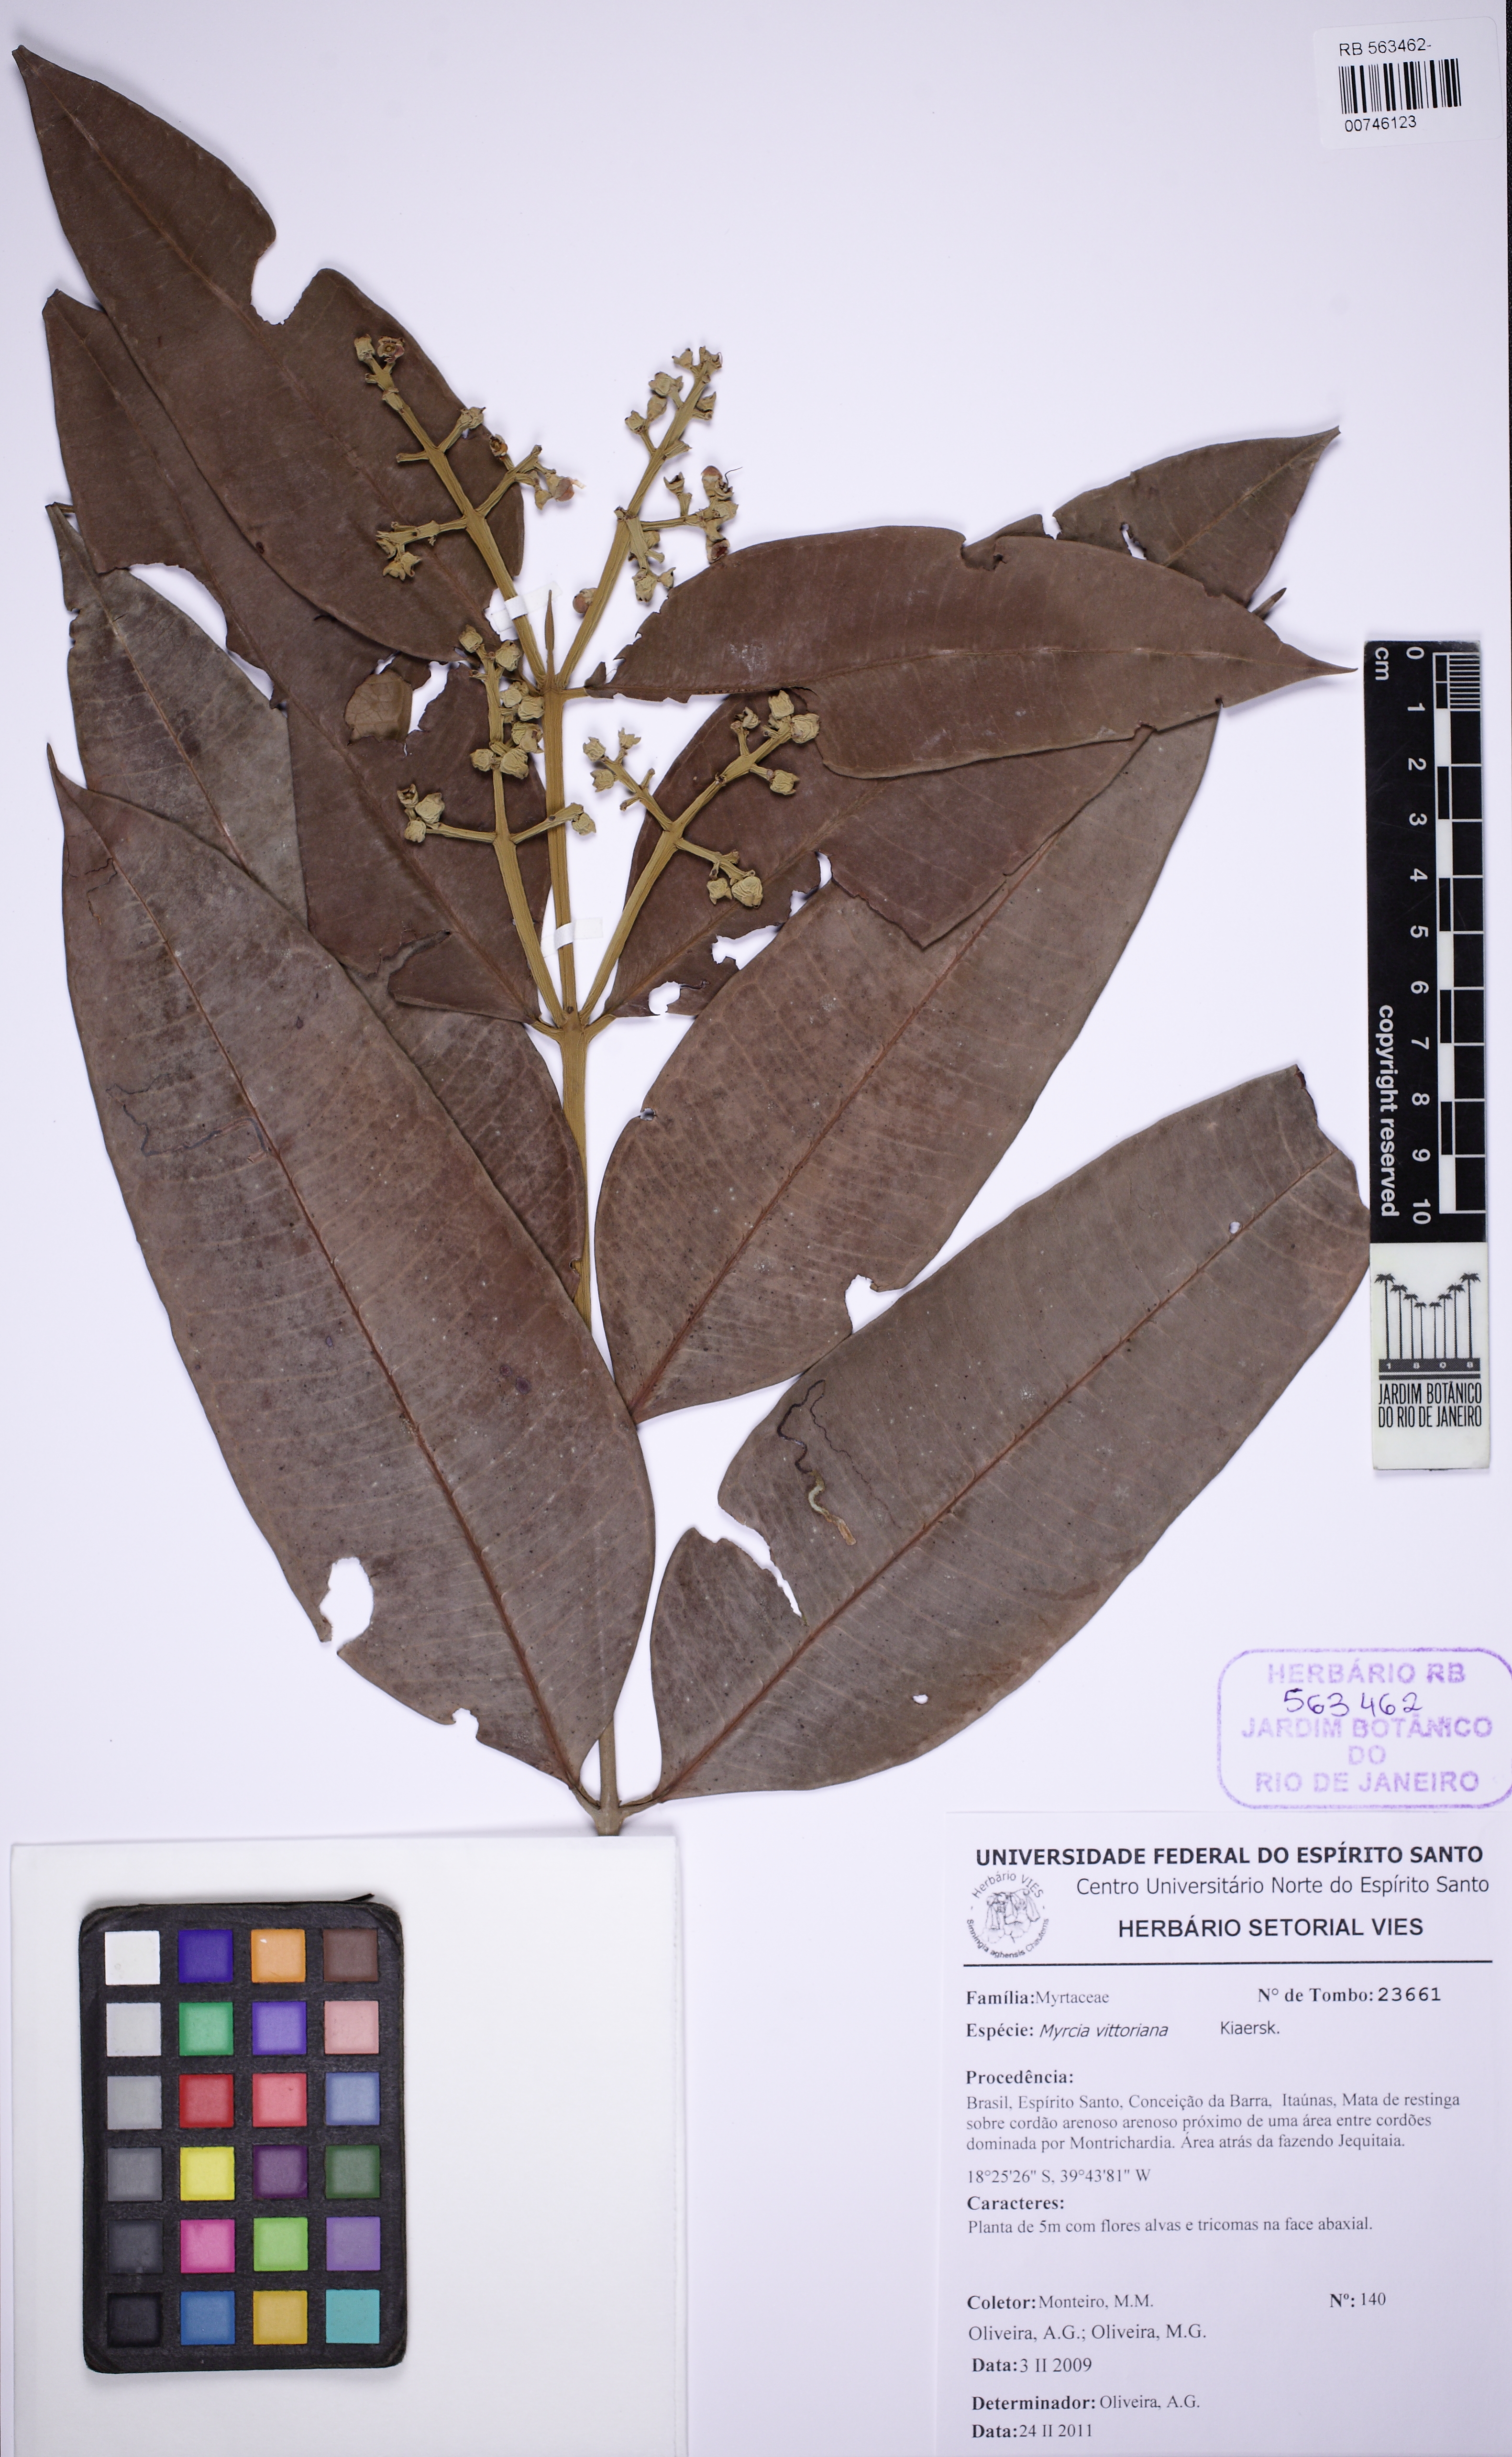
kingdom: Plantae
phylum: Tracheophyta
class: Magnoliopsida
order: Myrtales
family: Myrtaceae
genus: Myrcia
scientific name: Myrcia vittoriana
